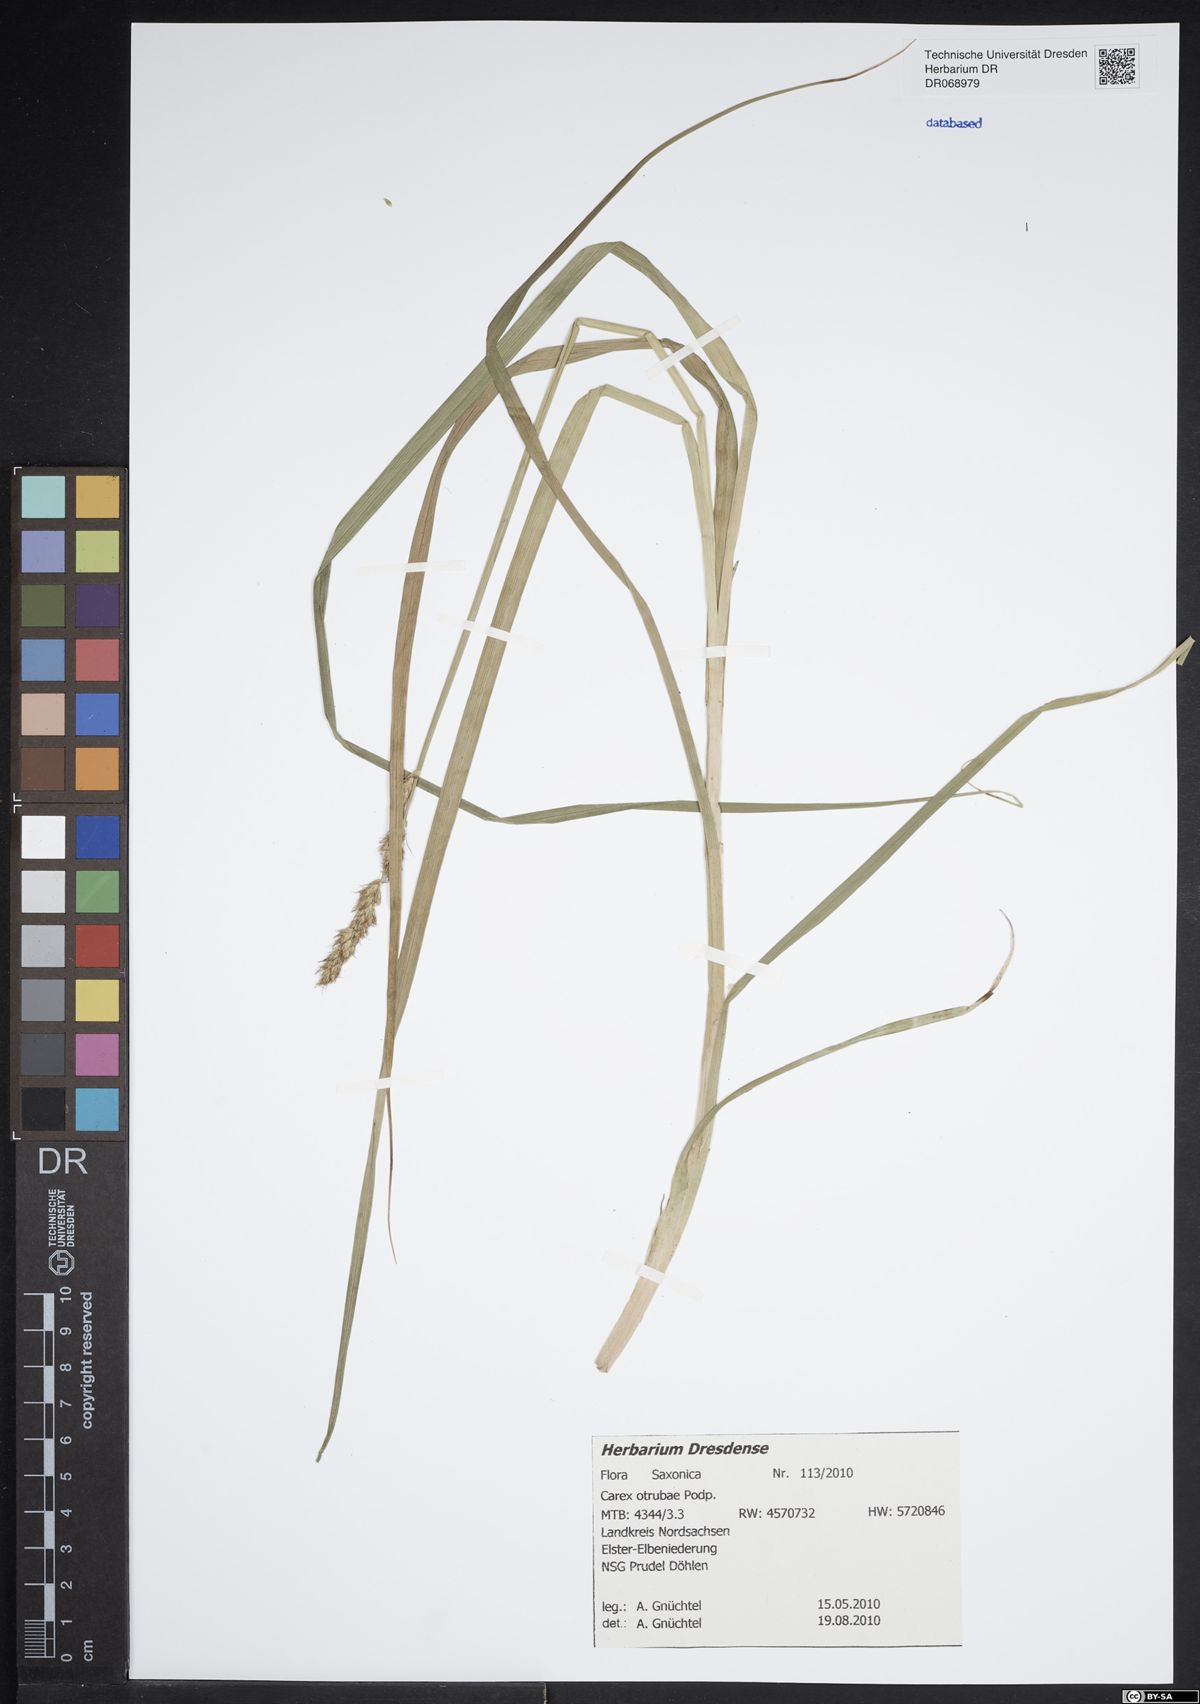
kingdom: Plantae
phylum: Tracheophyta
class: Liliopsida
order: Poales
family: Cyperaceae
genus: Carex
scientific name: Carex otrubae
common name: False fox-sedge
